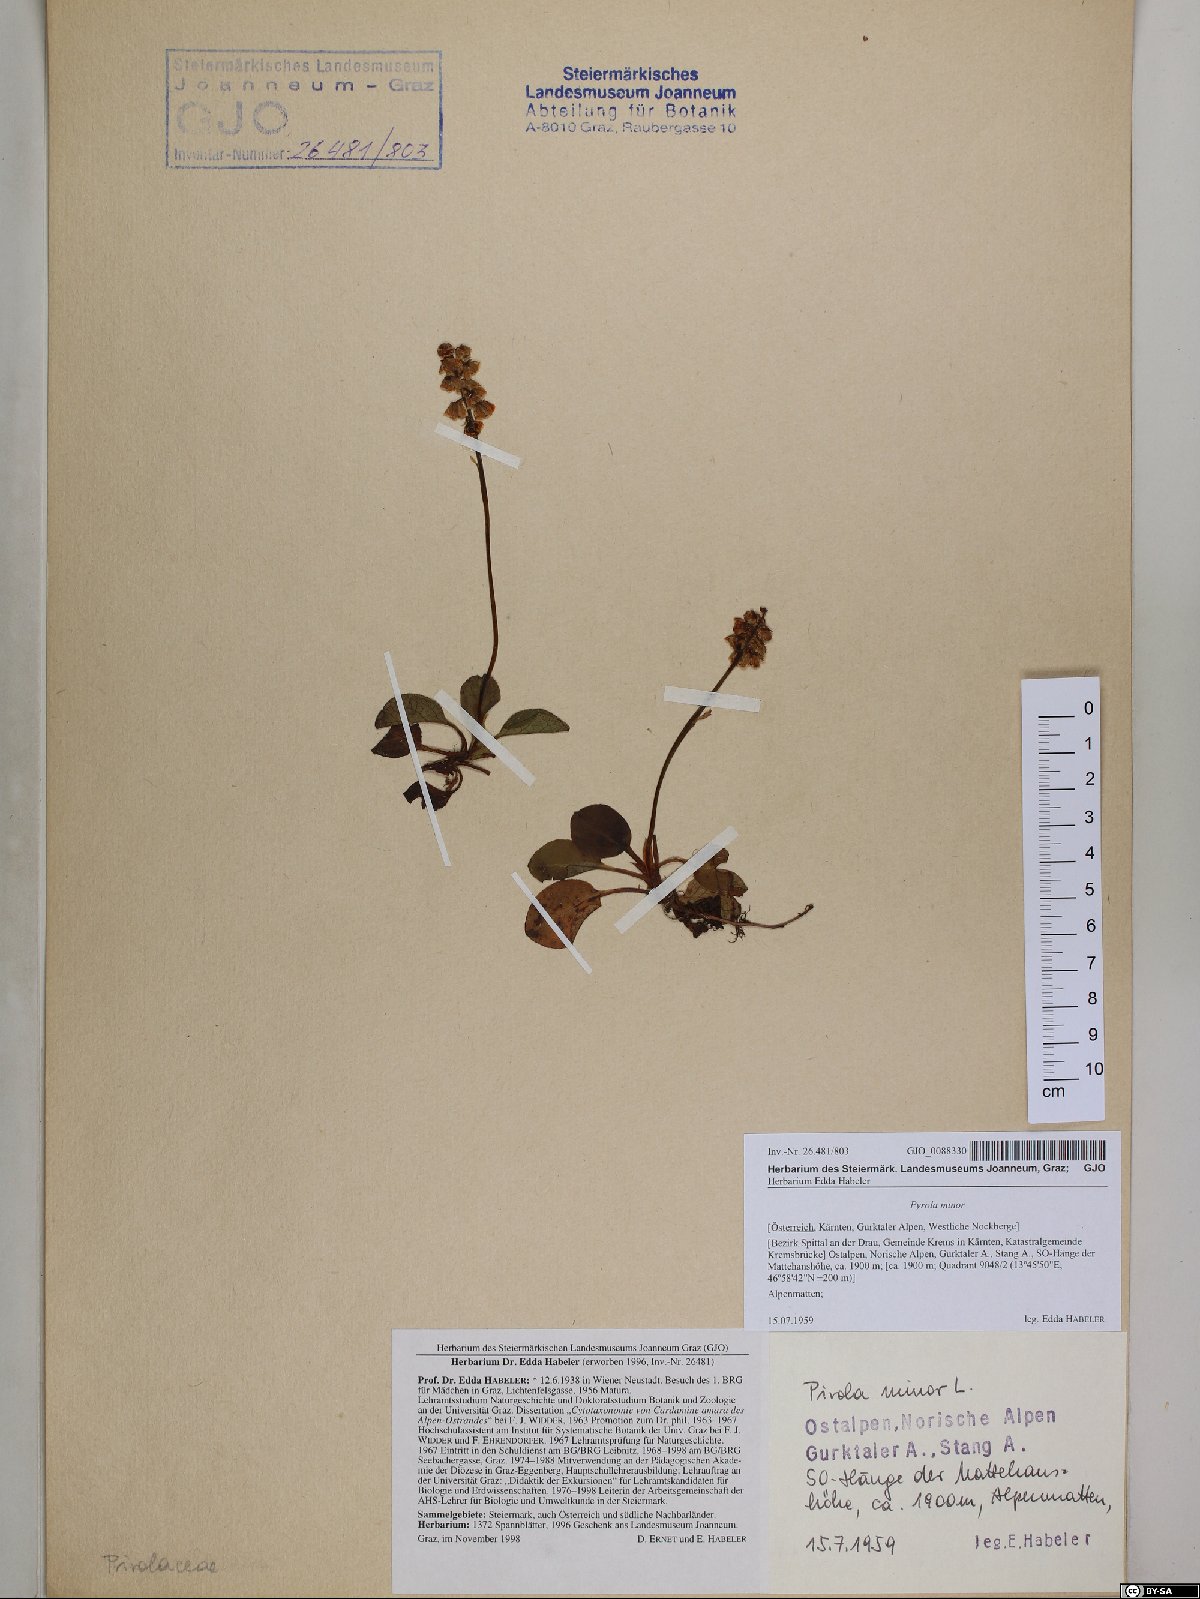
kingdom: Plantae
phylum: Tracheophyta
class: Magnoliopsida
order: Ericales
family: Ericaceae
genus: Pyrola
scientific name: Pyrola minor
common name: Common wintergreen
